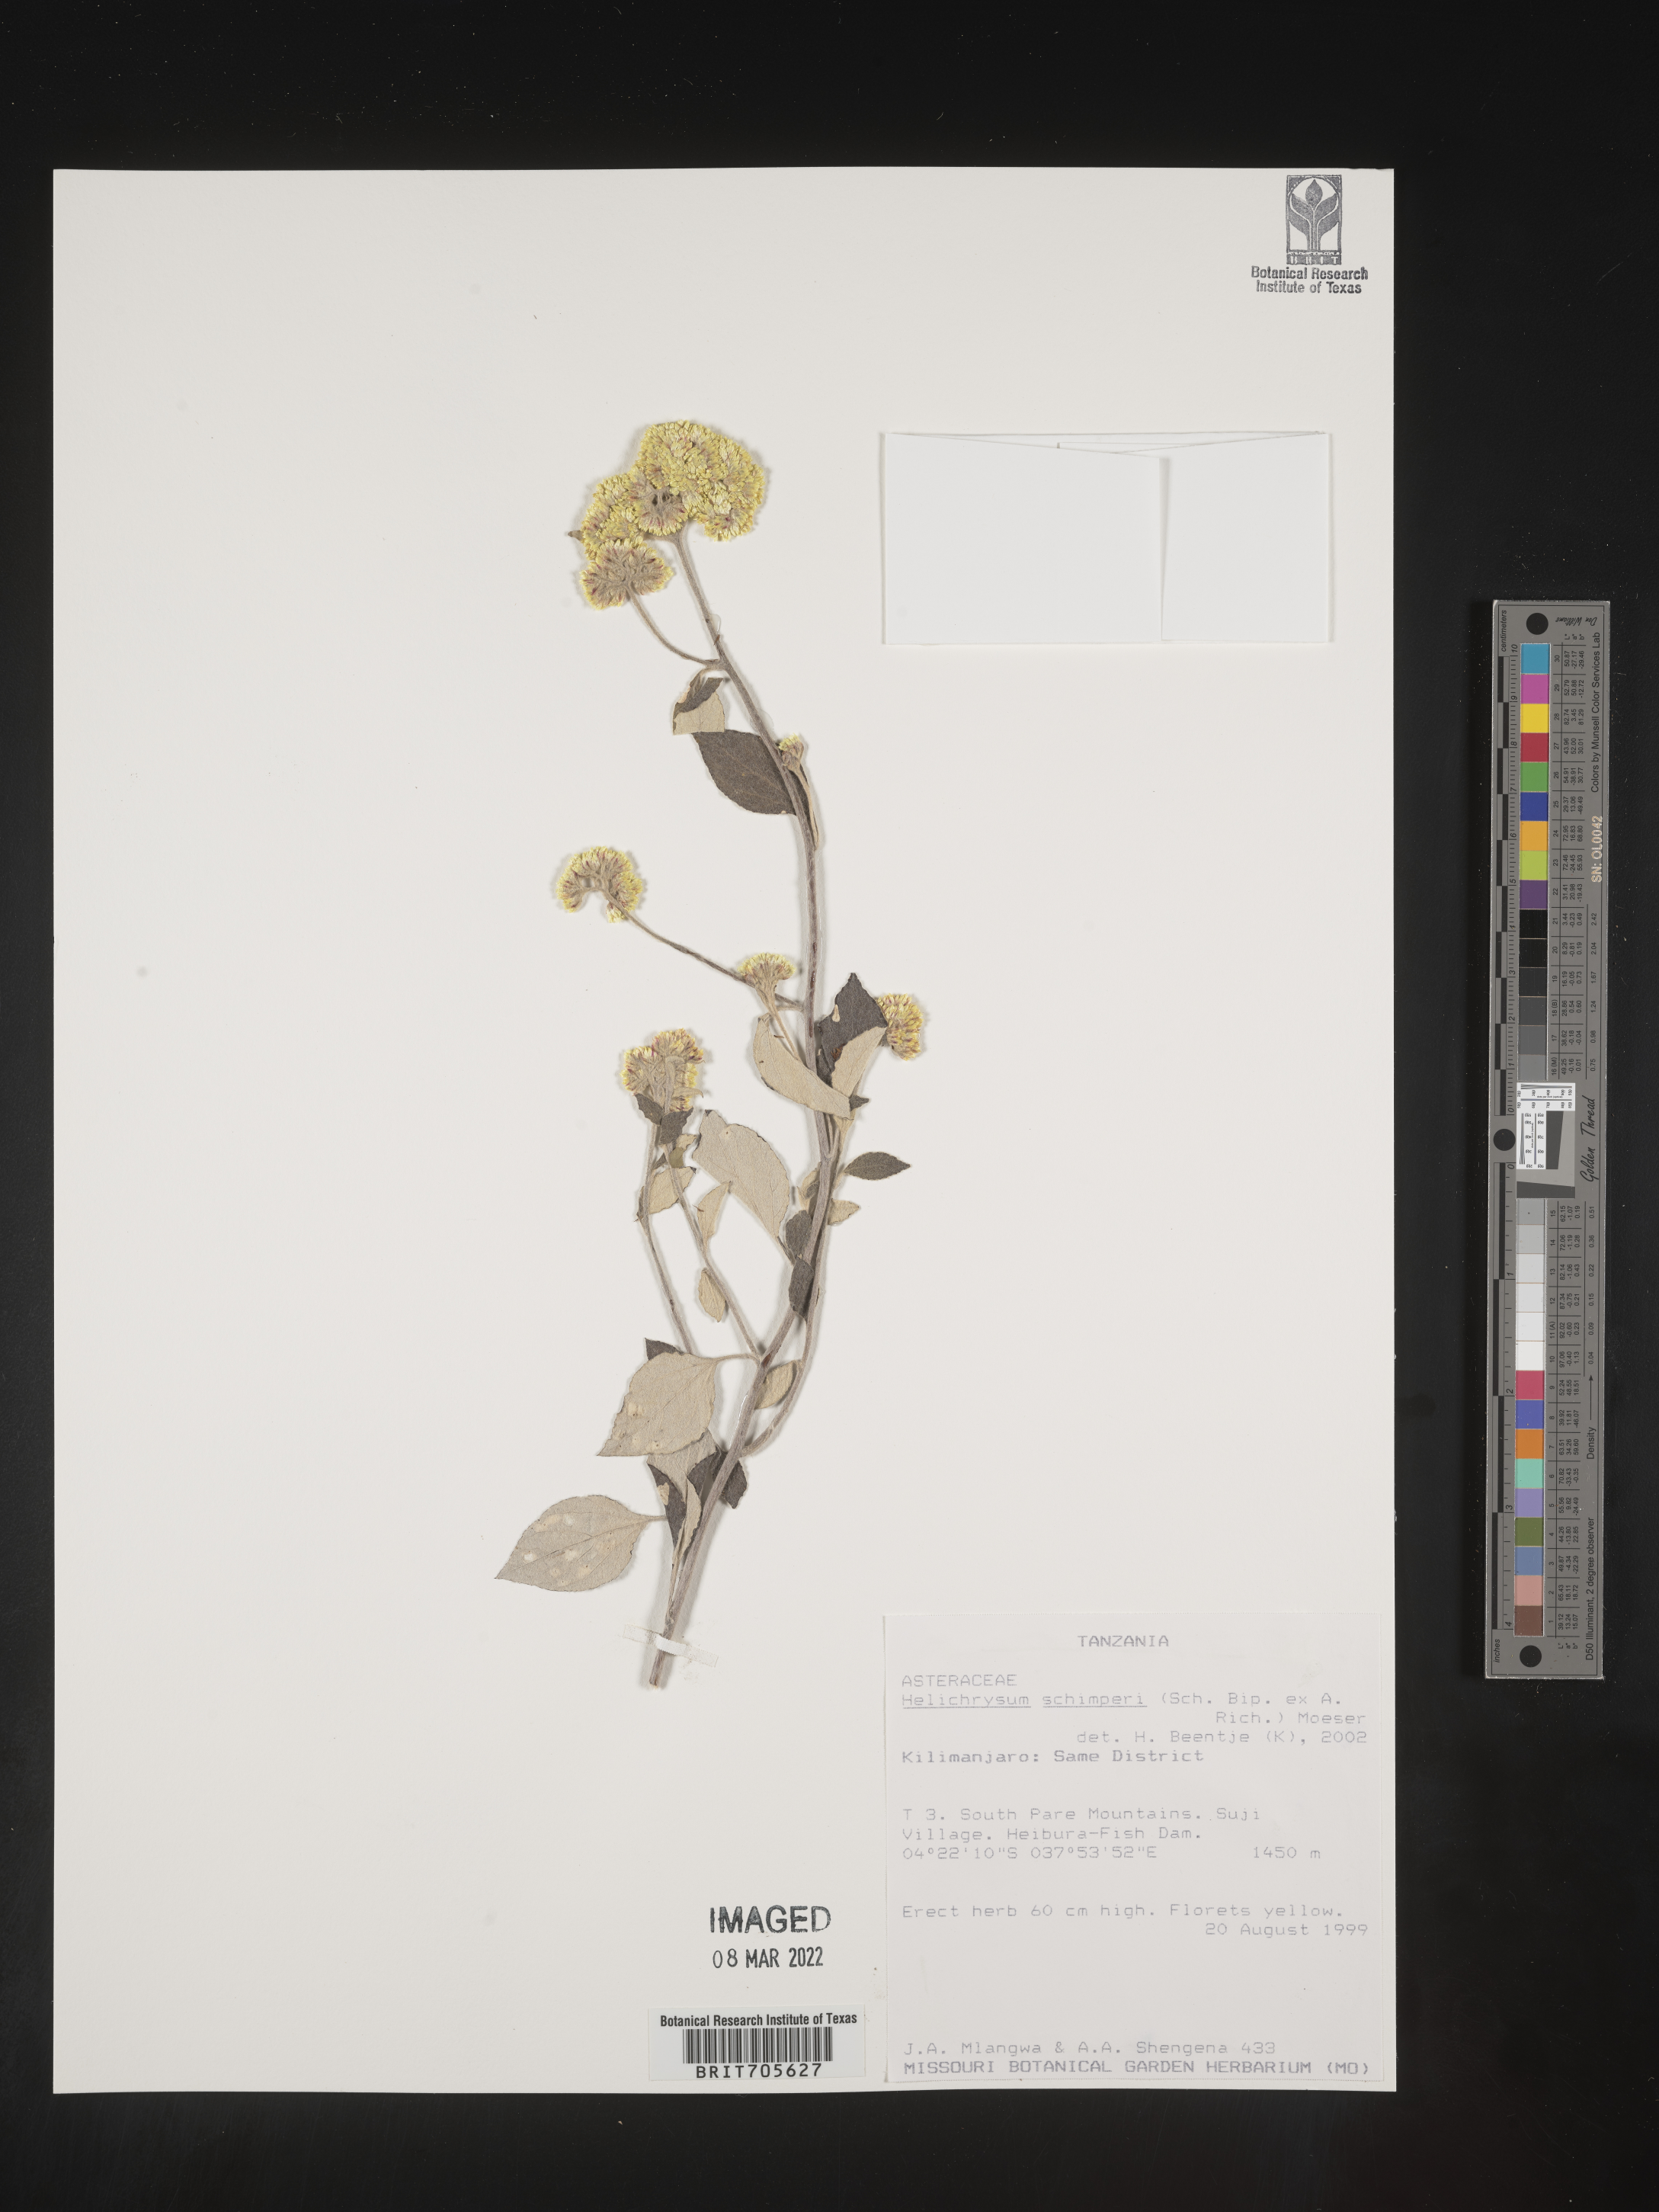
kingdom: Plantae
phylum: Tracheophyta
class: Magnoliopsida
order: Asterales
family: Asteraceae
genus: Helichrysum
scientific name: Helichrysum schimperi
